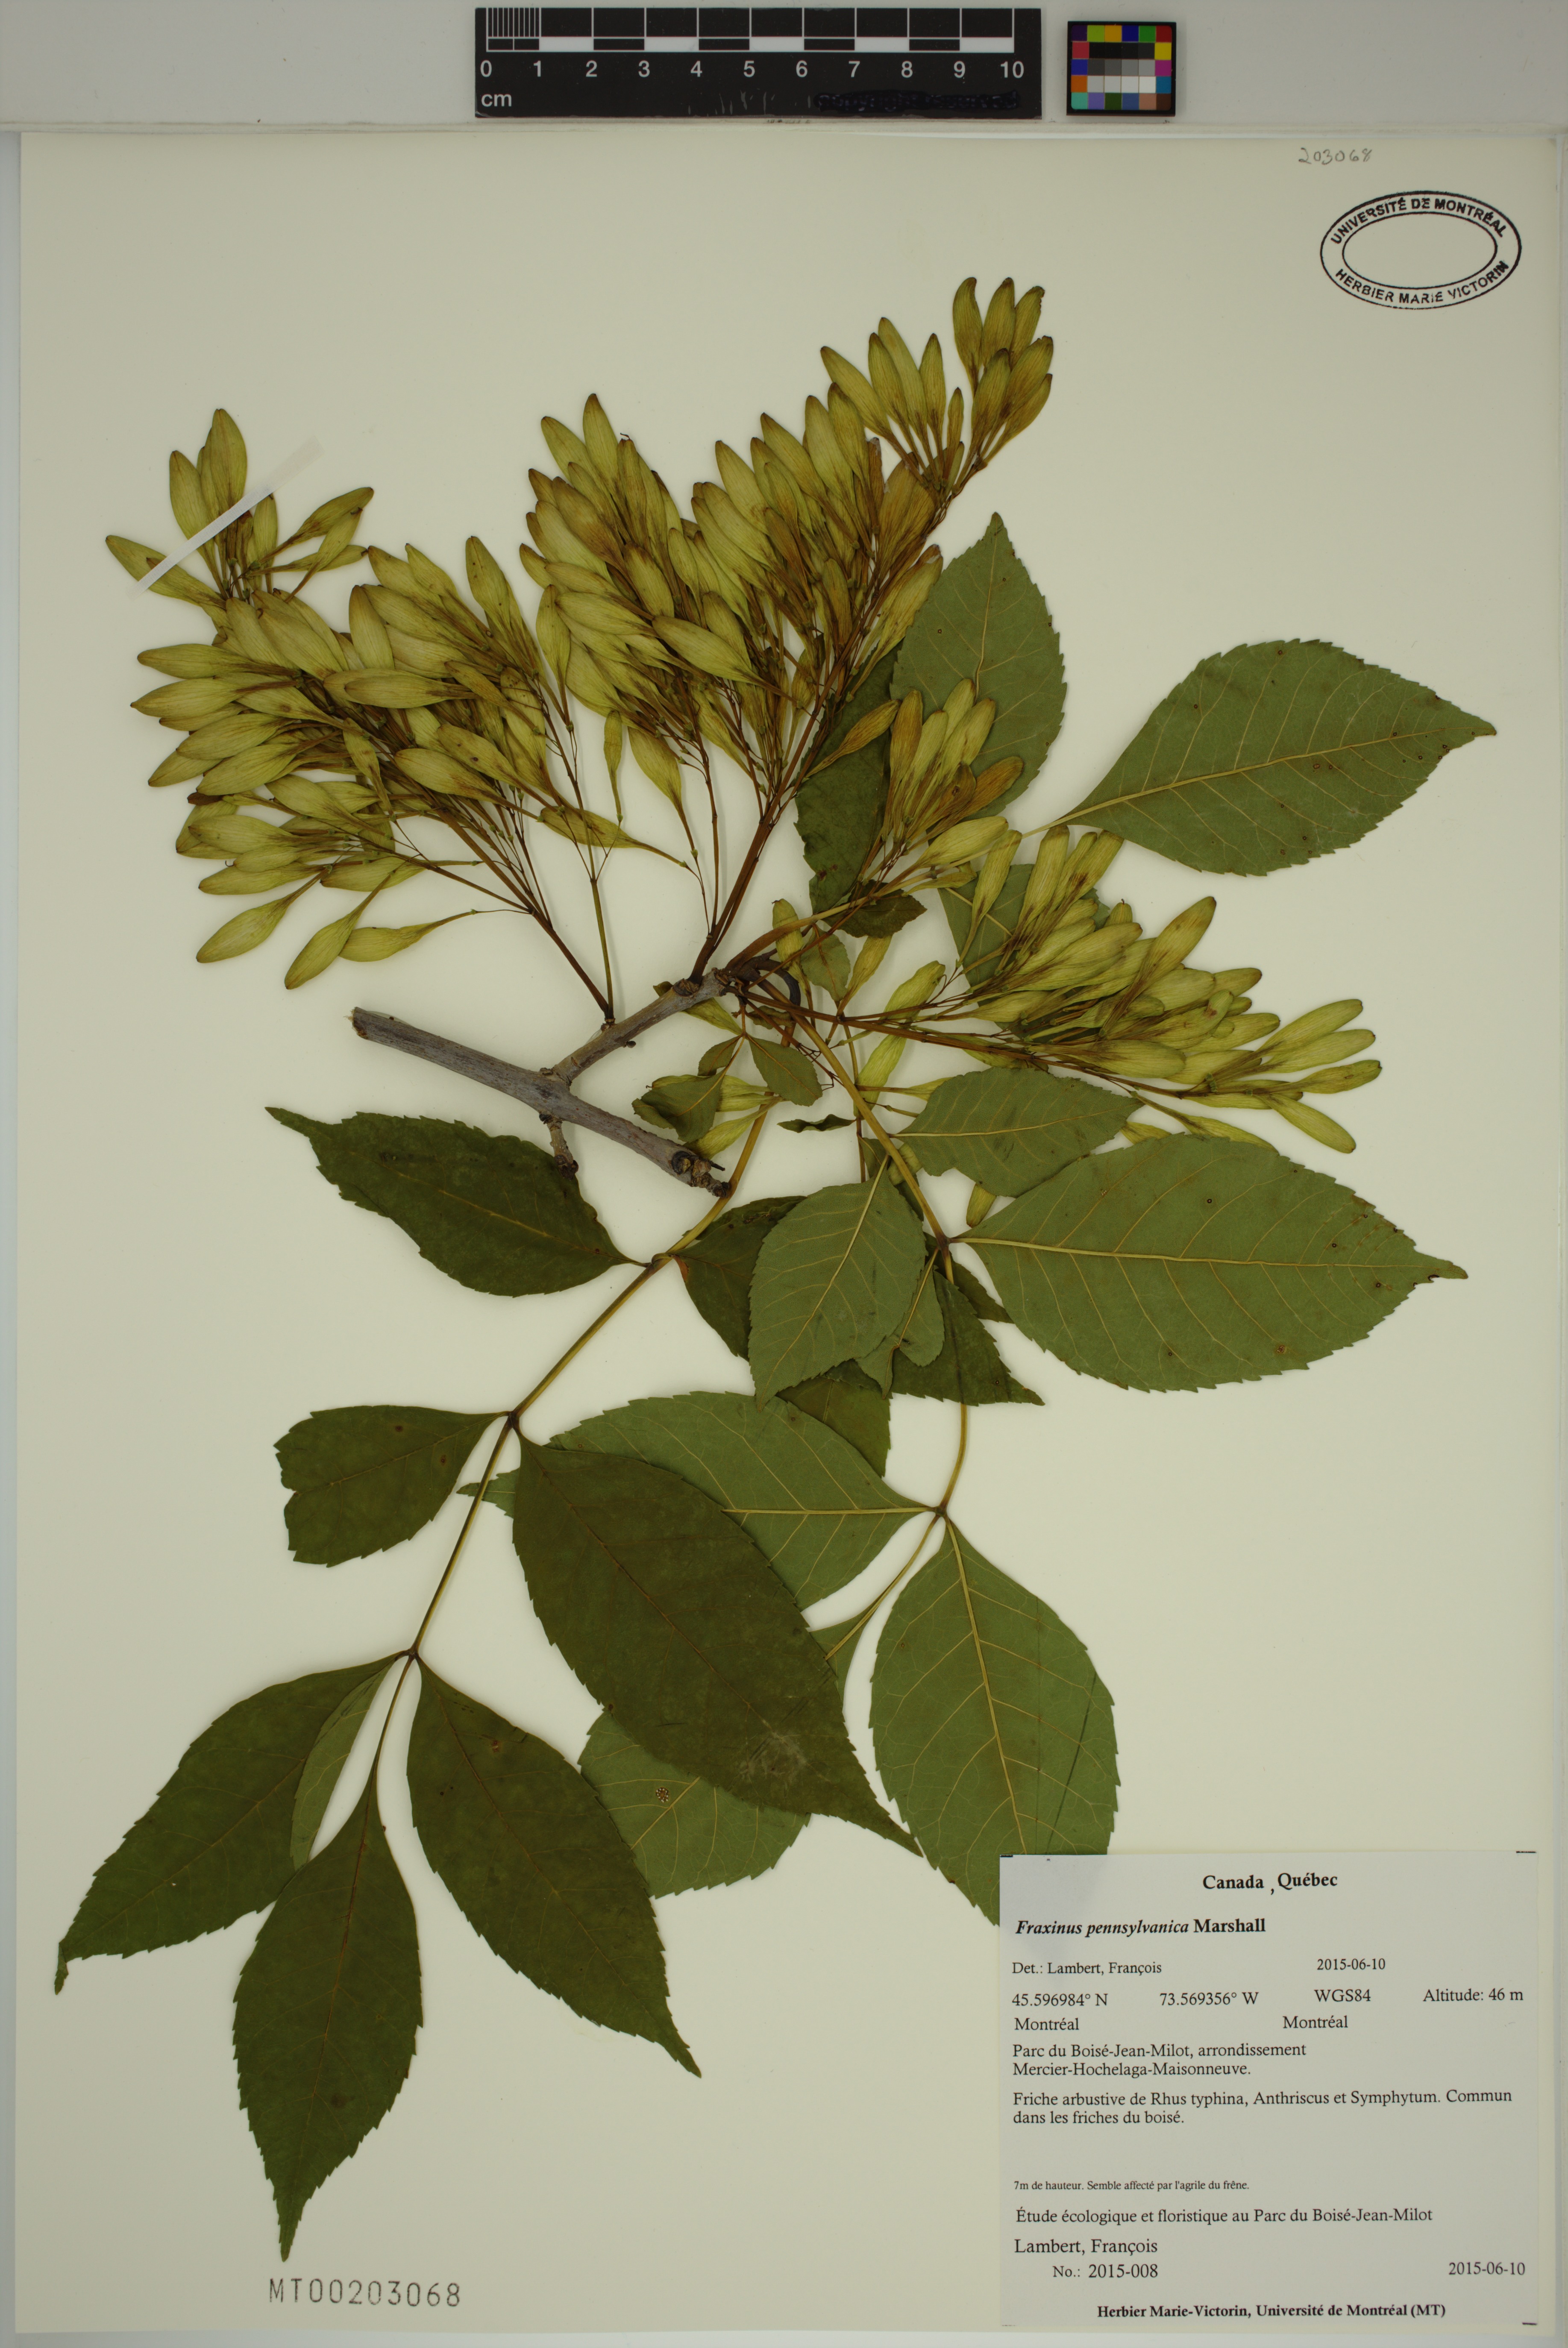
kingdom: Plantae
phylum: Tracheophyta
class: Magnoliopsida
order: Lamiales
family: Oleaceae
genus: Fraxinus
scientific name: Fraxinus pennsylvanica
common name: Green ash
